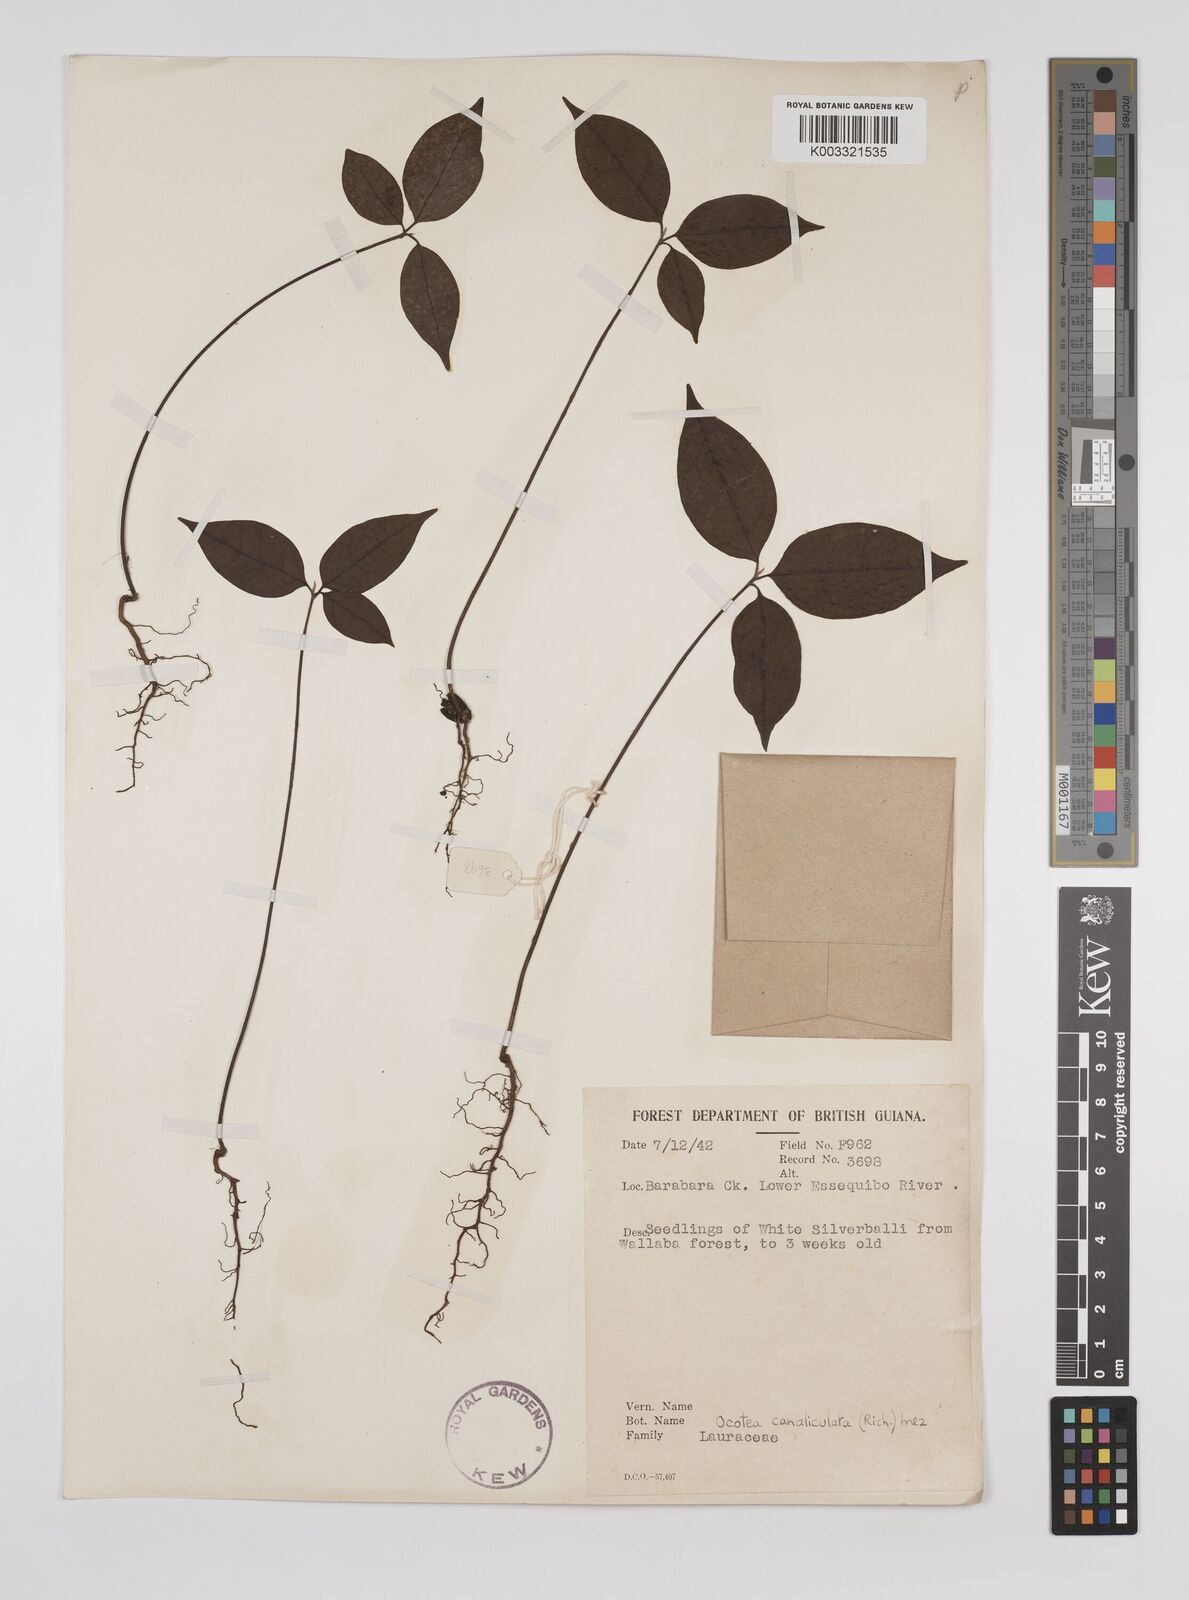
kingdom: Plantae
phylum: Tracheophyta
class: Magnoliopsida
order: Laurales
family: Lauraceae
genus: Ocotea
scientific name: Ocotea canaliculata
